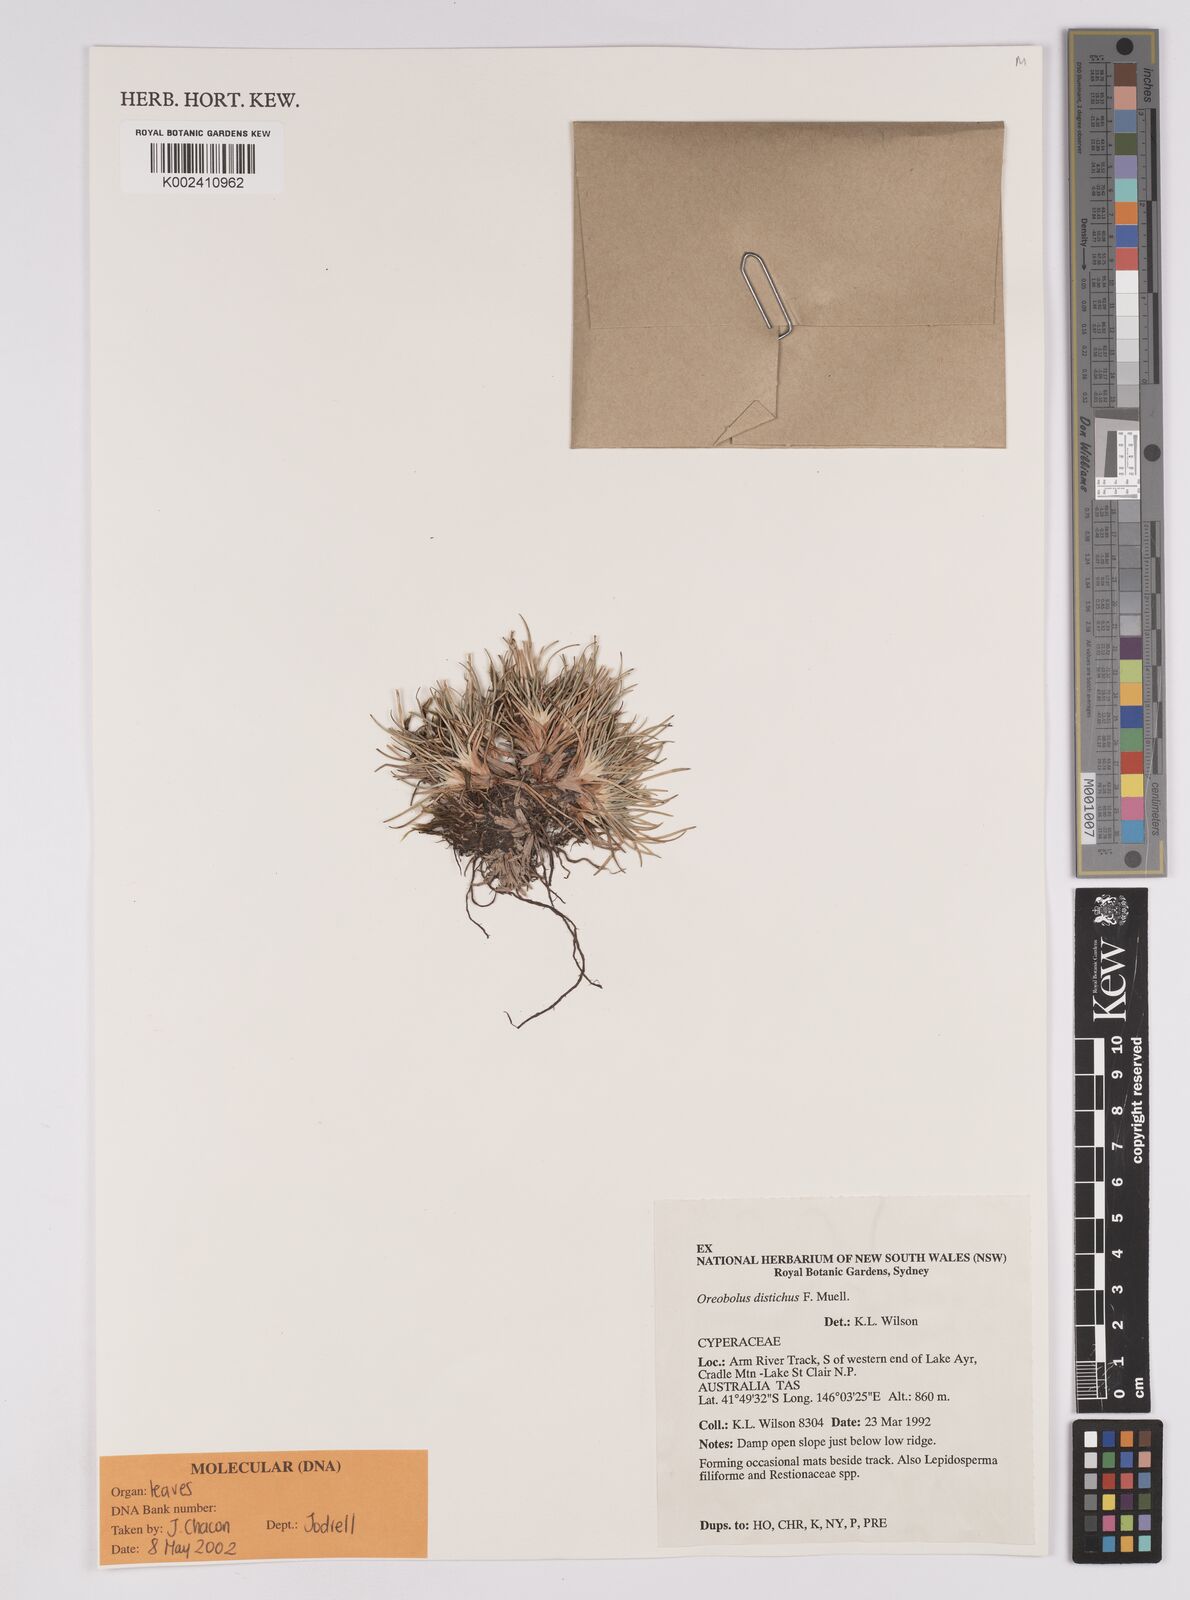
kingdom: Plantae
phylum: Tracheophyta
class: Liliopsida
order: Poales
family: Cyperaceae
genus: Oreobolus
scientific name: Oreobolus oxycarpus
